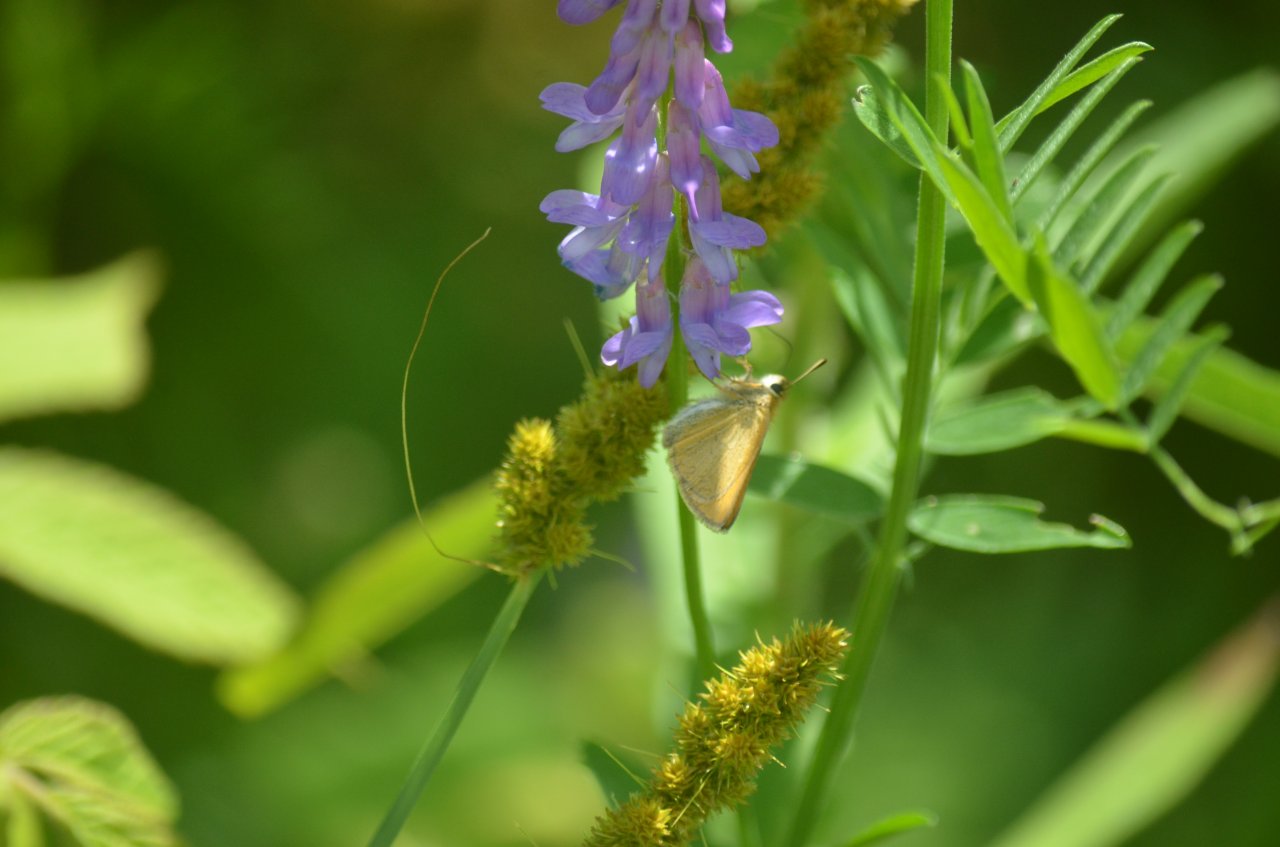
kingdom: Animalia
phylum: Arthropoda
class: Insecta
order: Lepidoptera
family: Hesperiidae
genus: Thymelicus
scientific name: Thymelicus lineola
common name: European Skipper
